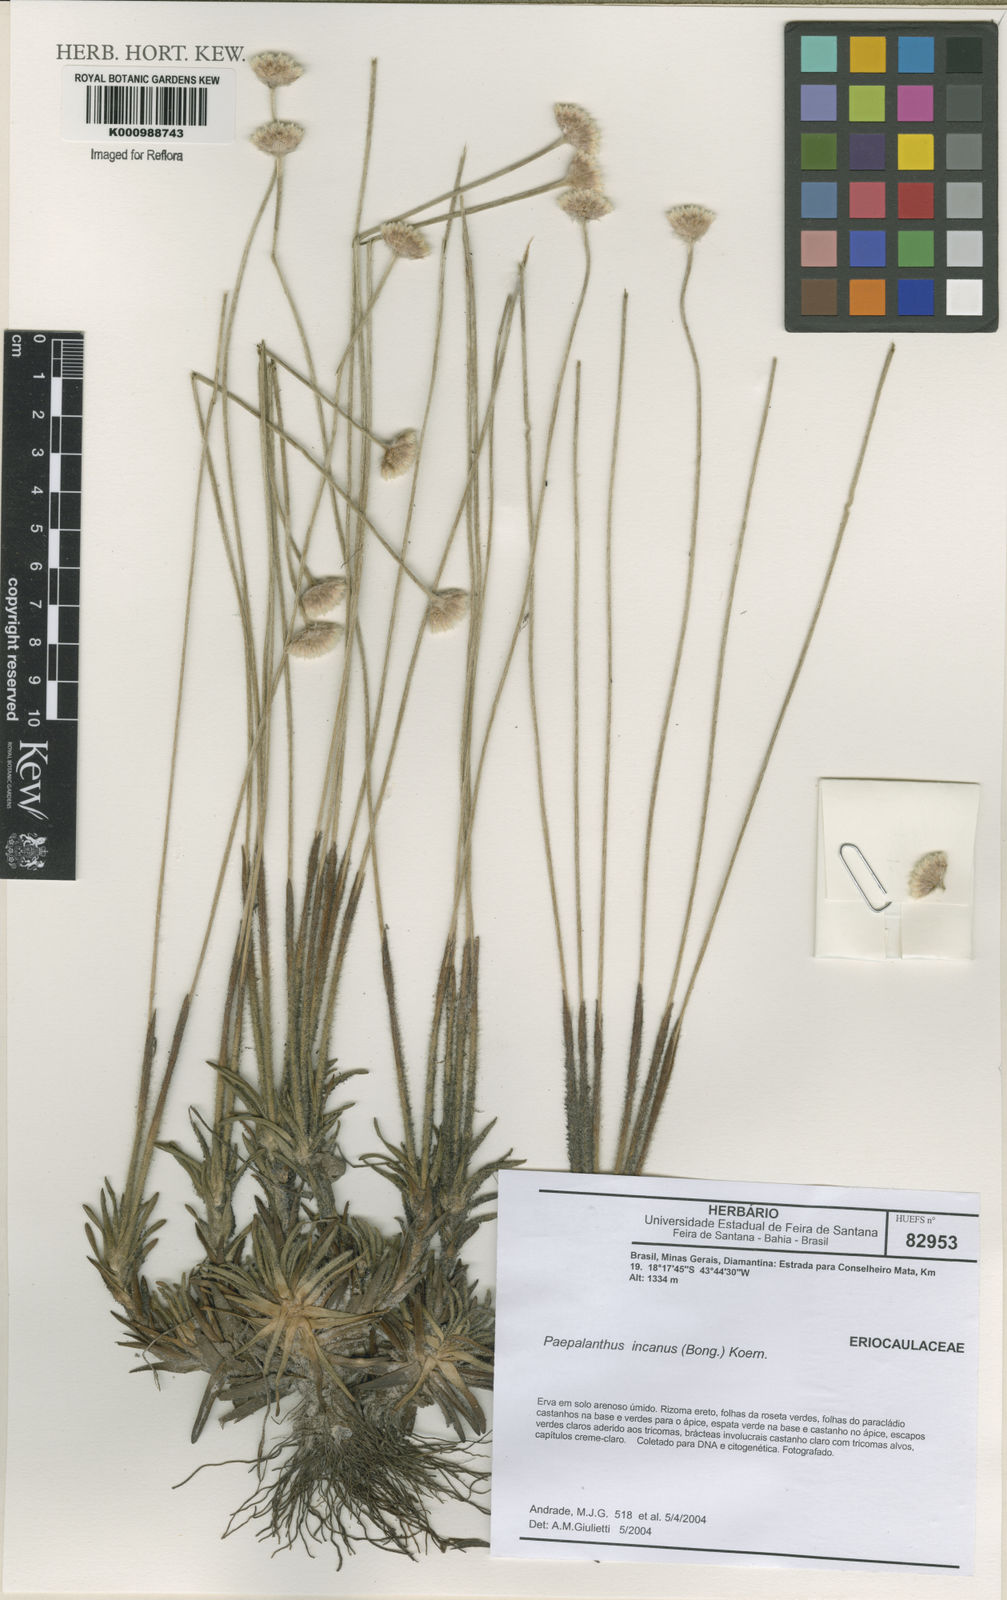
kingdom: Plantae
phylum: Tracheophyta
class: Liliopsida
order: Poales
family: Eriocaulaceae
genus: Paepalanthus
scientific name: Paepalanthus
